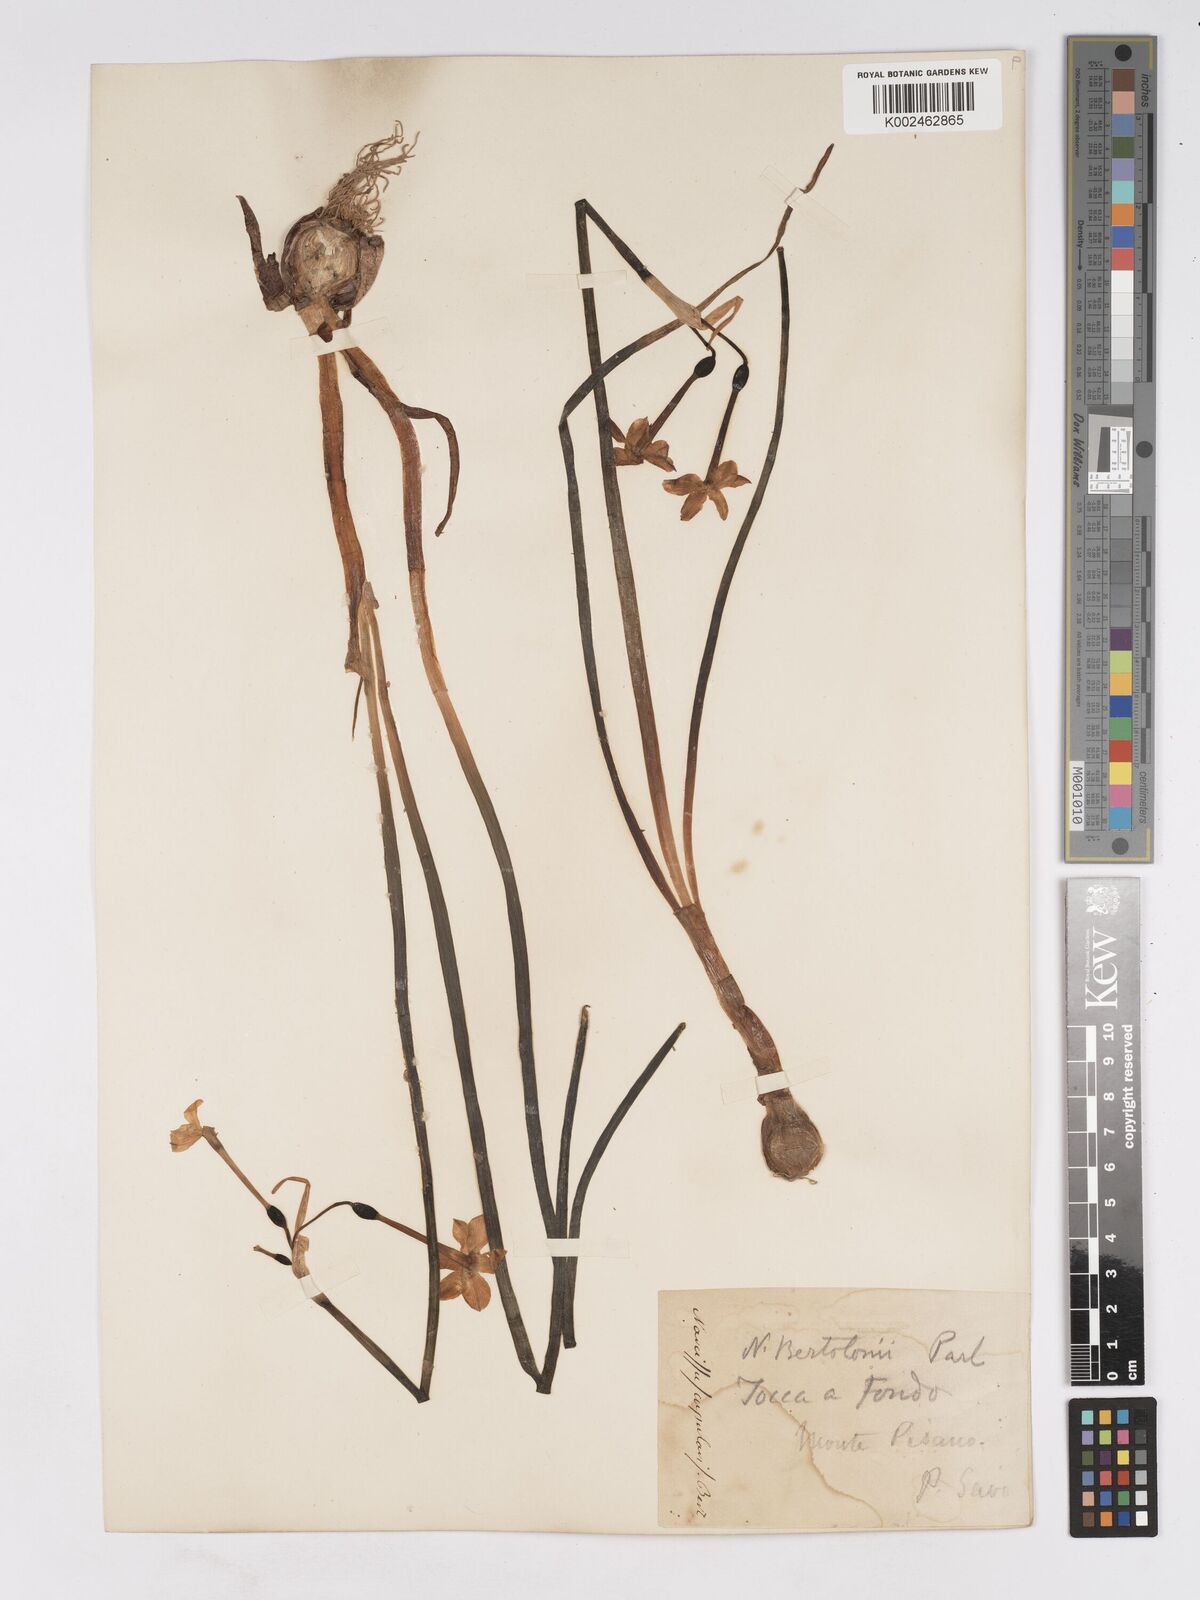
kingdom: Plantae
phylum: Tracheophyta
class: Liliopsida
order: Asparagales
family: Amaryllidaceae
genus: Narcissus
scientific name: Narcissus tazetta
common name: Bunch-flowered daffodil
